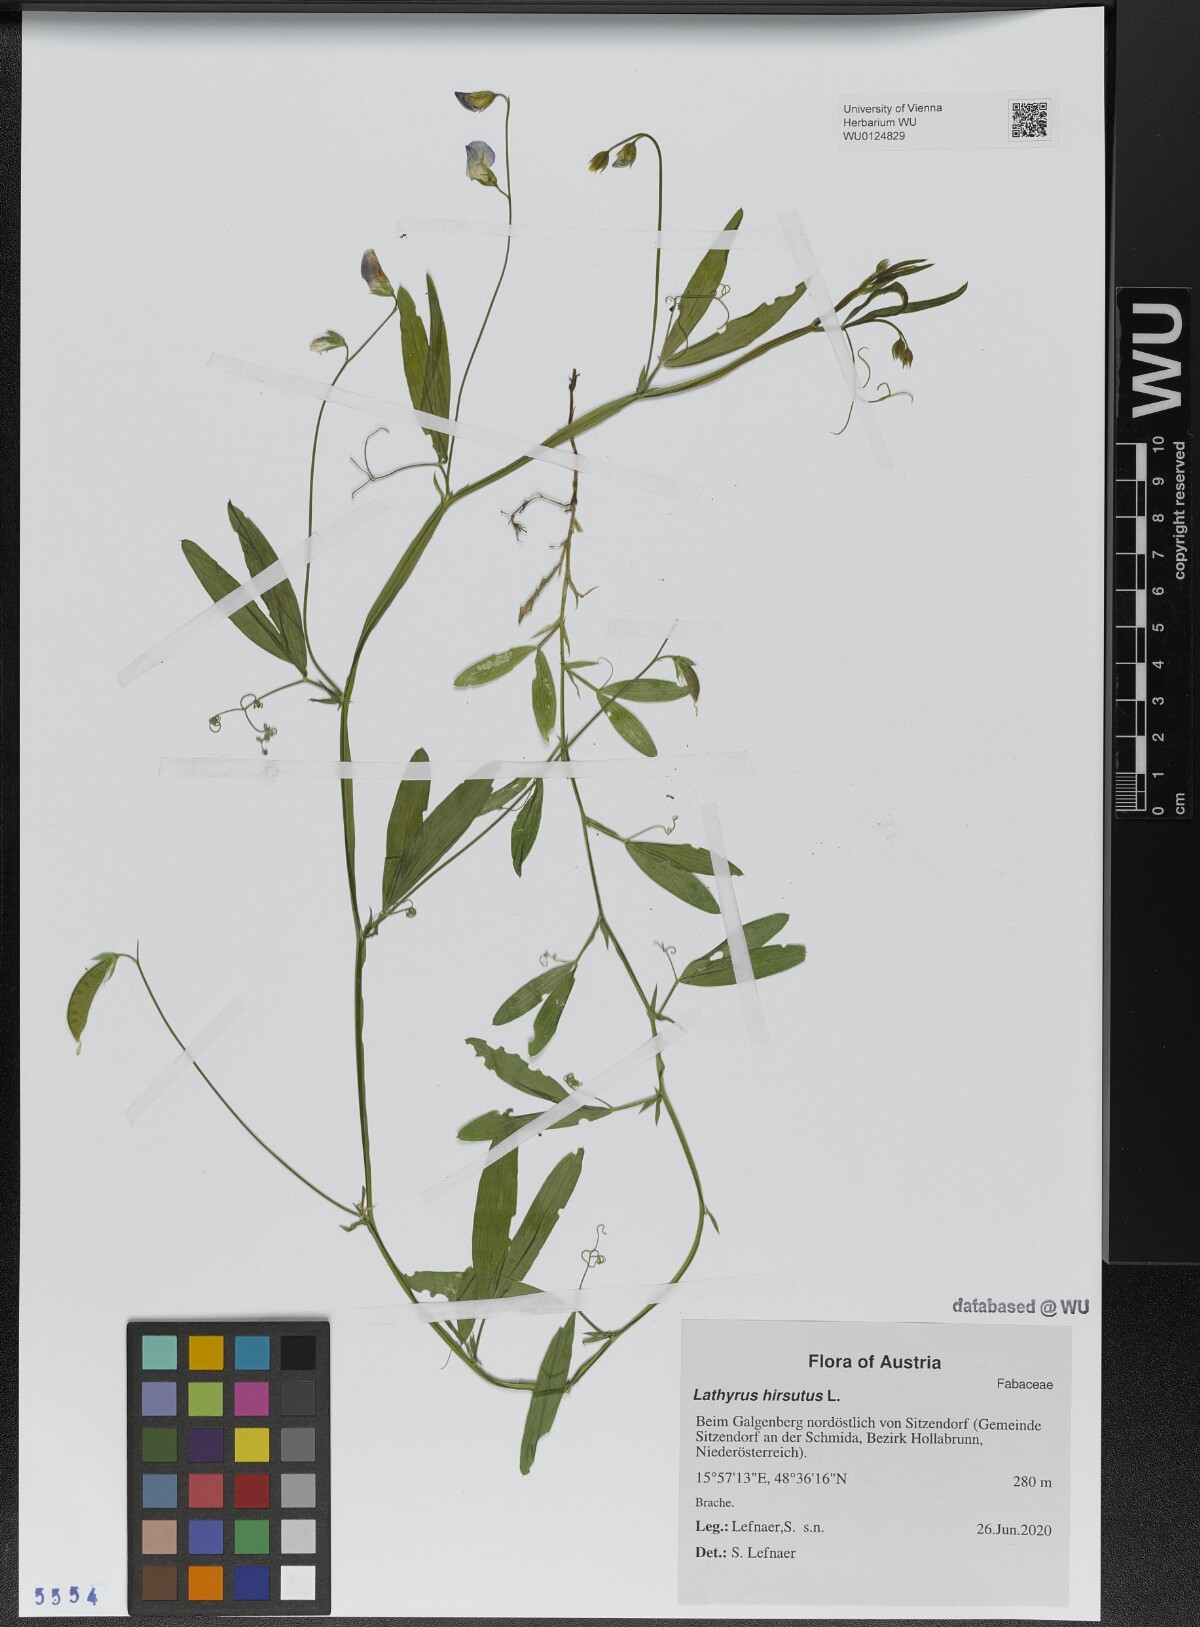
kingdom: Plantae
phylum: Tracheophyta
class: Magnoliopsida
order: Fabales
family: Fabaceae
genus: Lathyrus
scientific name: Lathyrus hirsutus
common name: Hairy vetchling
